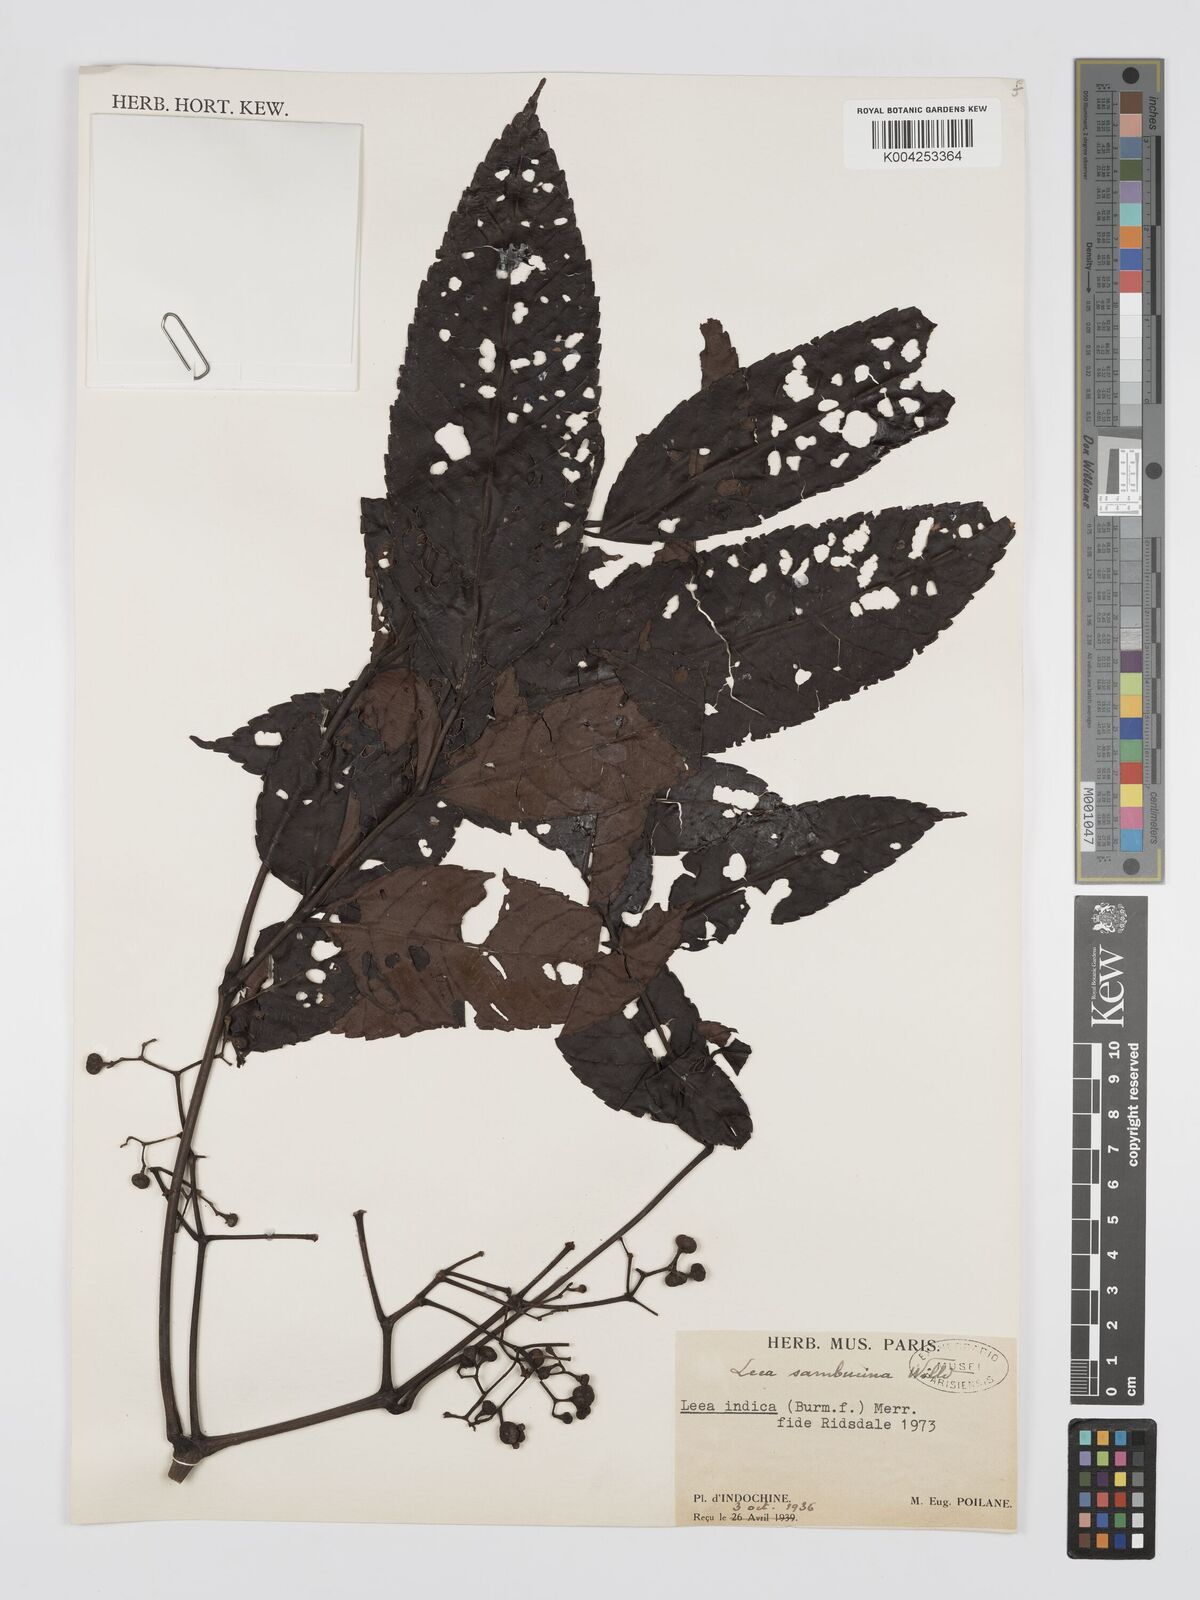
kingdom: Plantae
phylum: Tracheophyta
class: Magnoliopsida
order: Vitales
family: Vitaceae
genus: Leea
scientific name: Leea
